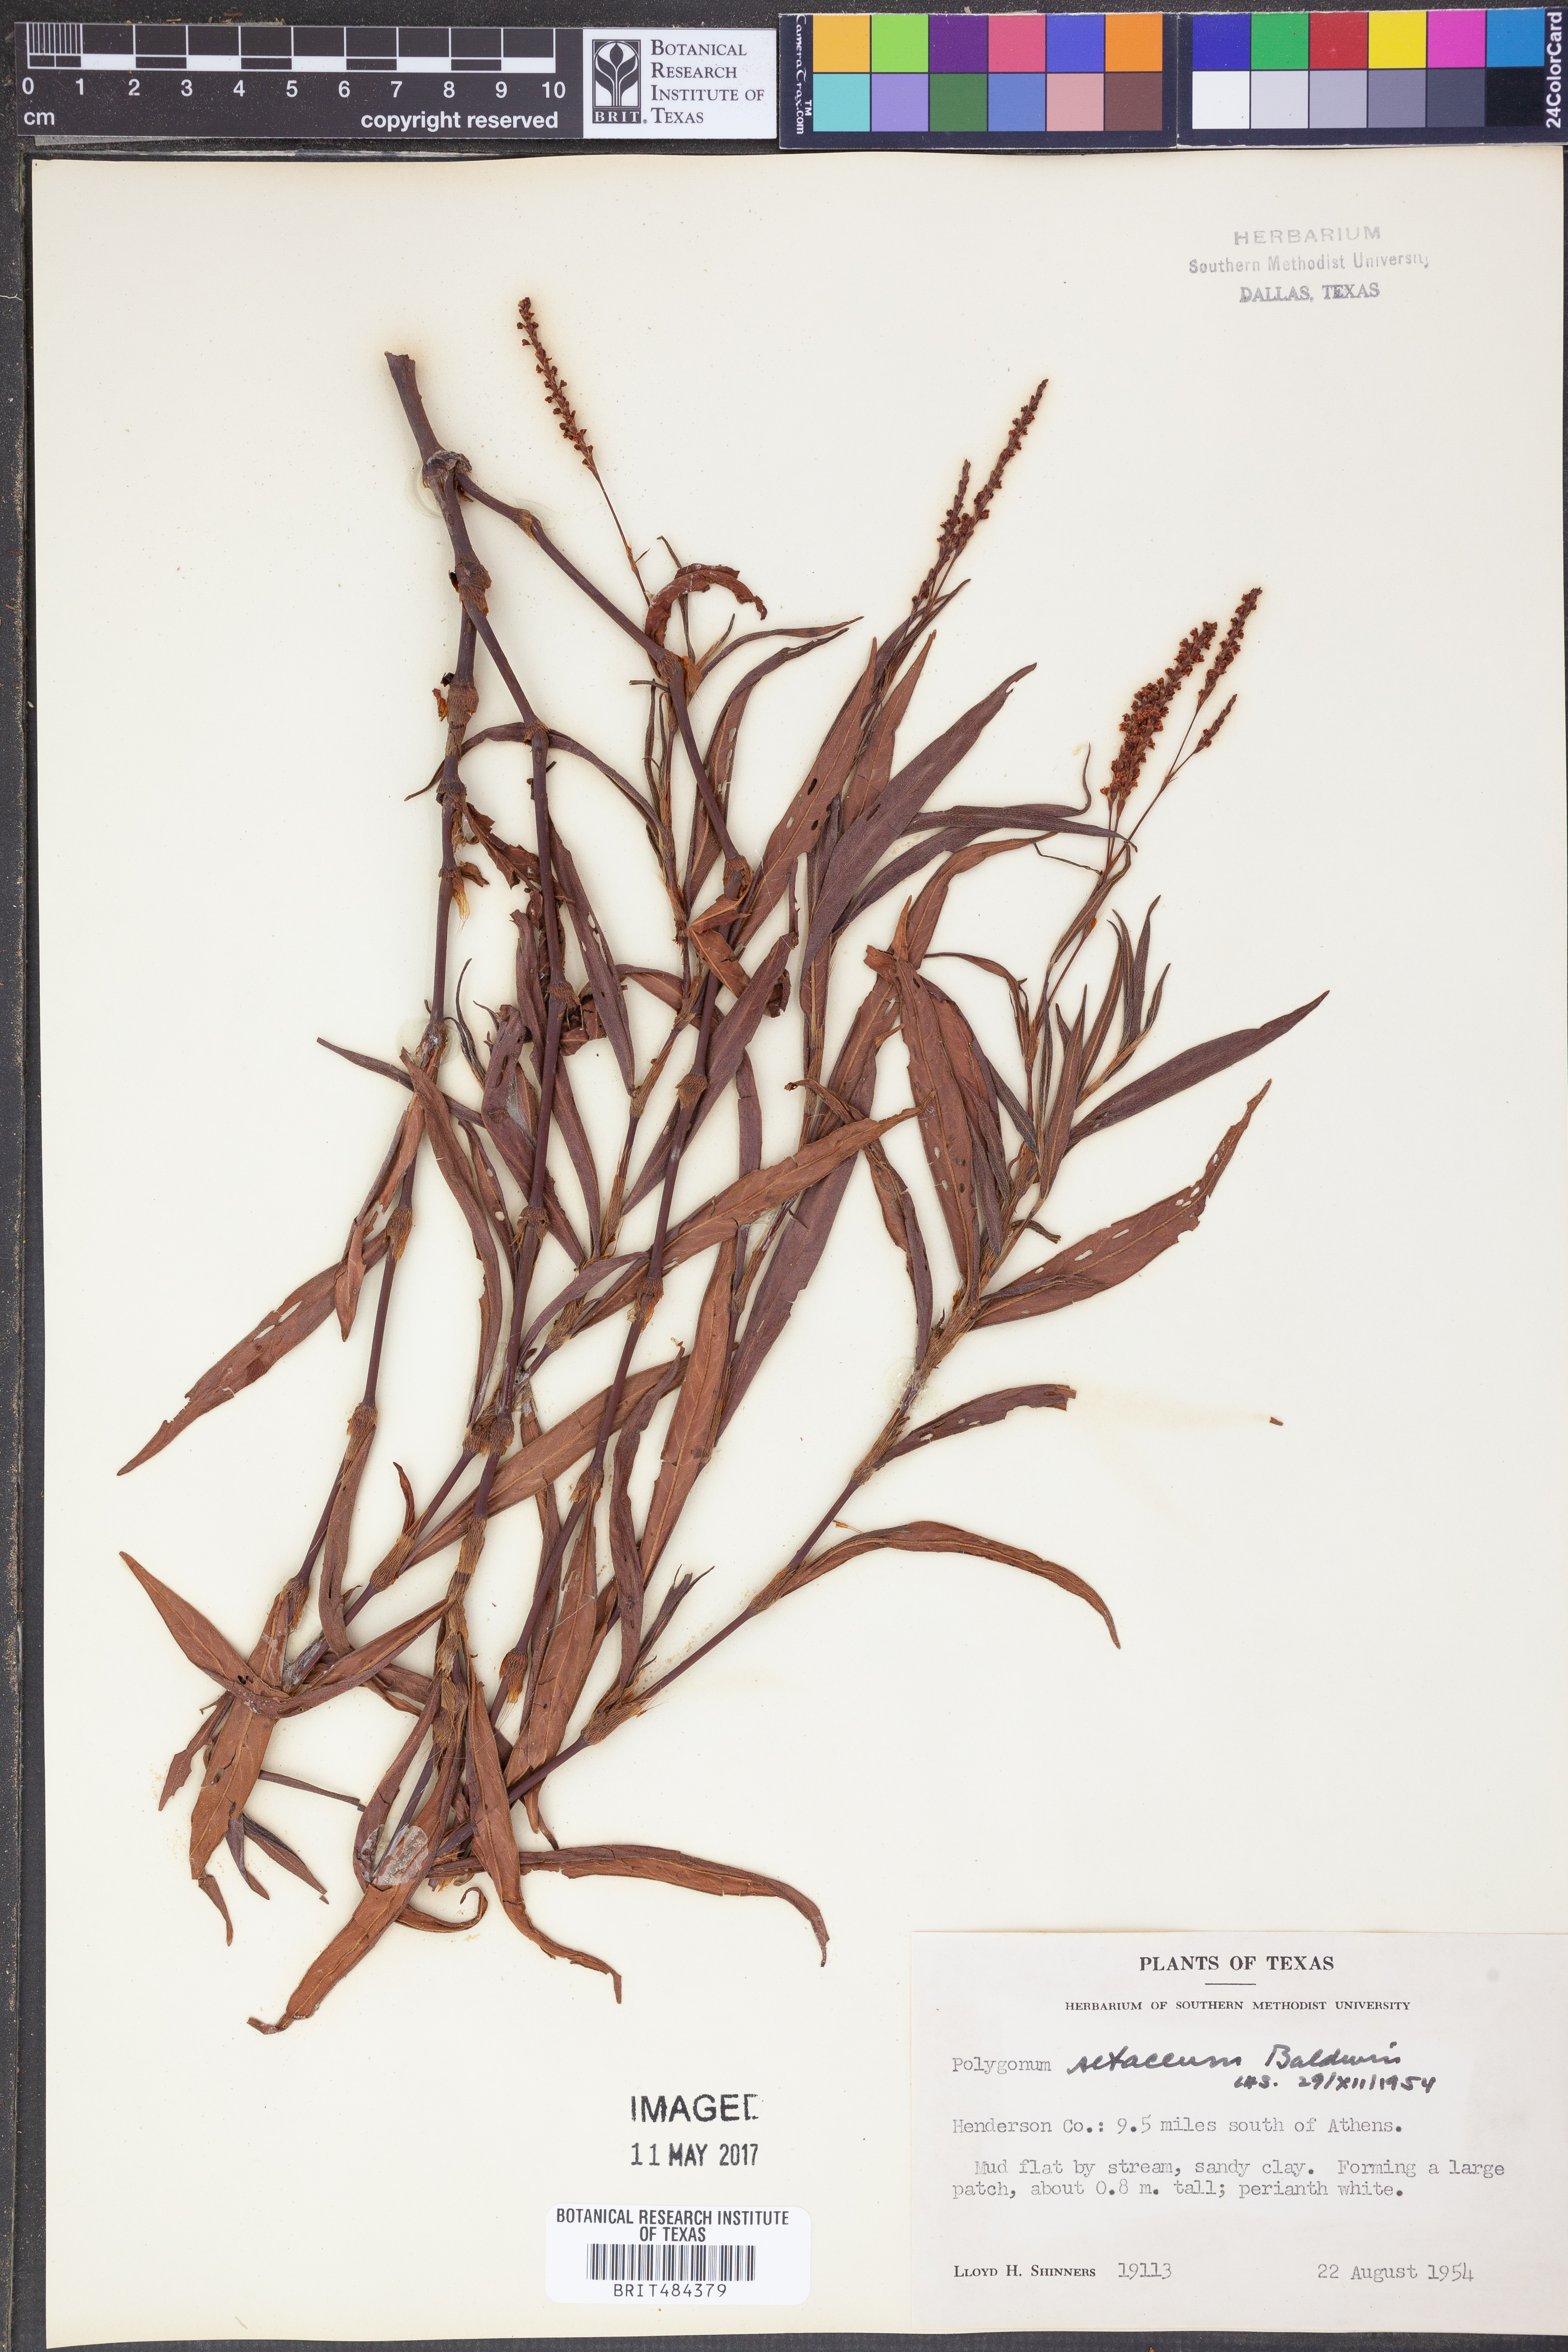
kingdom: Plantae
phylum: Tracheophyta
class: Magnoliopsida
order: Caryophyllales
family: Polygonaceae
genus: Persicaria
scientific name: Persicaria setacea
